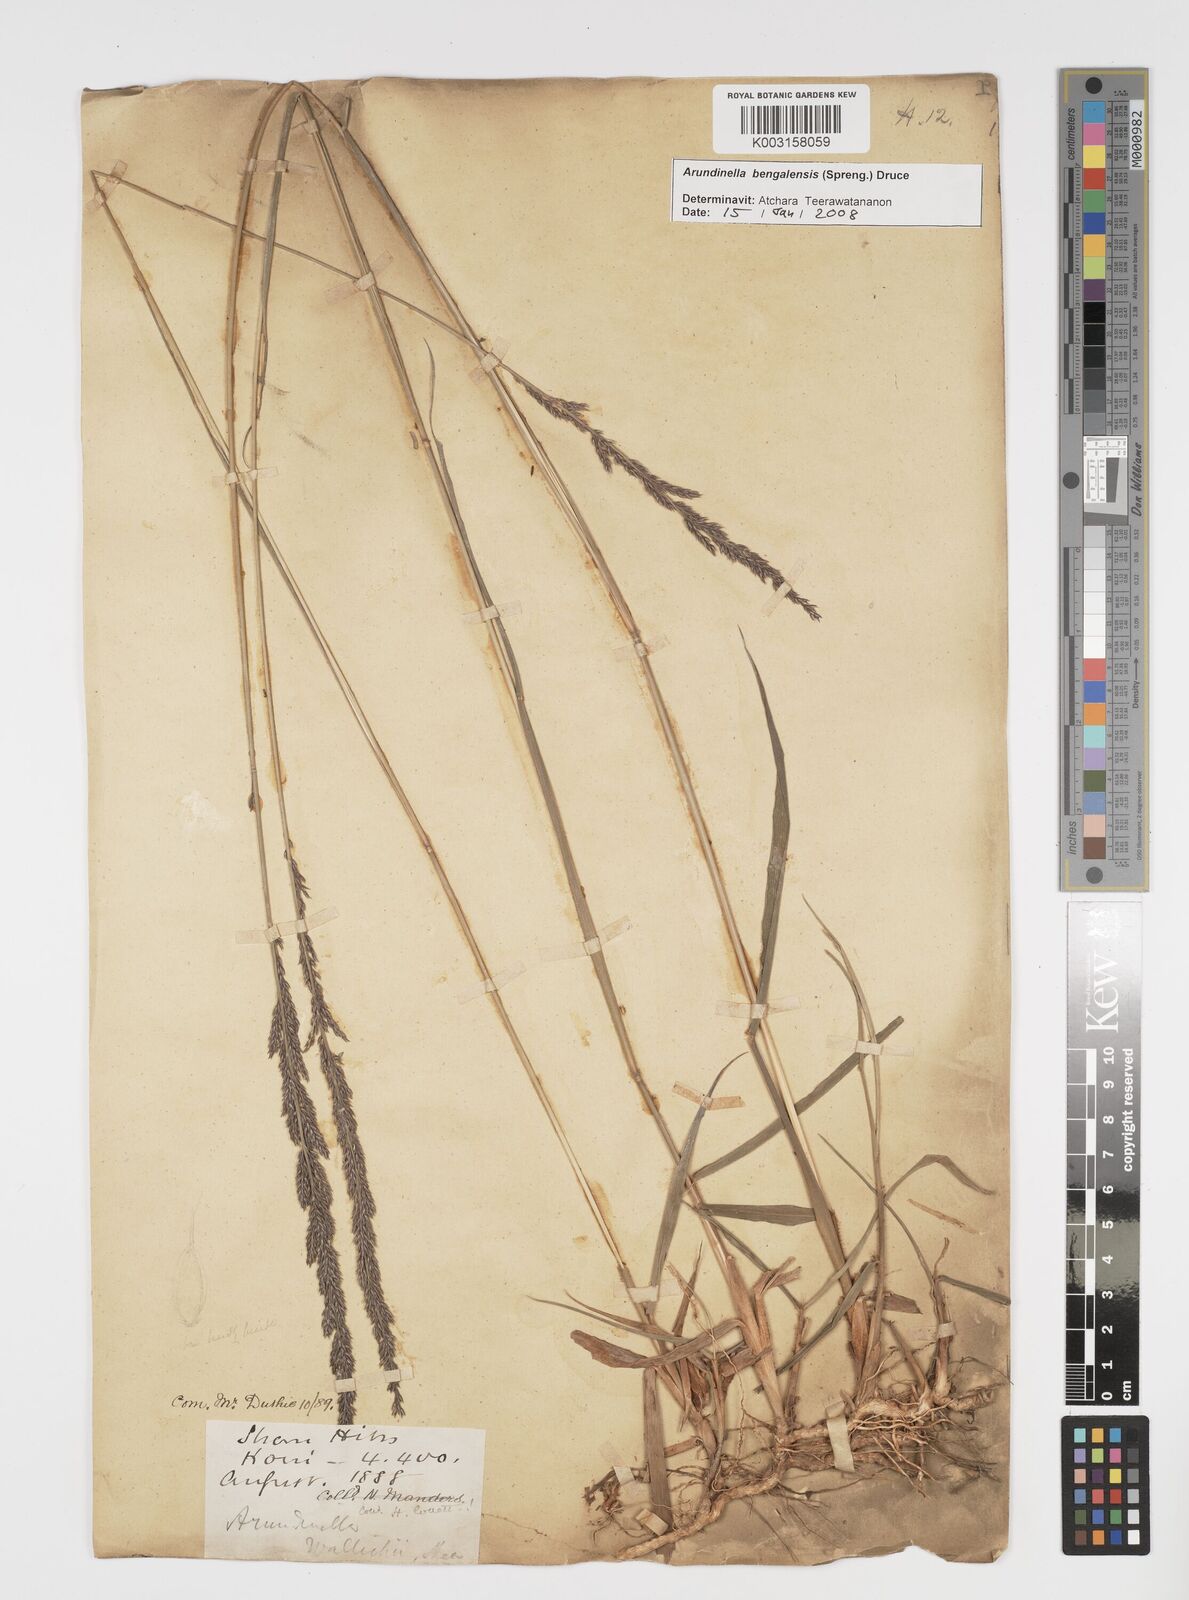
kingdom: Plantae
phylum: Tracheophyta
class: Liliopsida
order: Poales
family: Poaceae
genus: Arundinella
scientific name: Arundinella bengalensis
